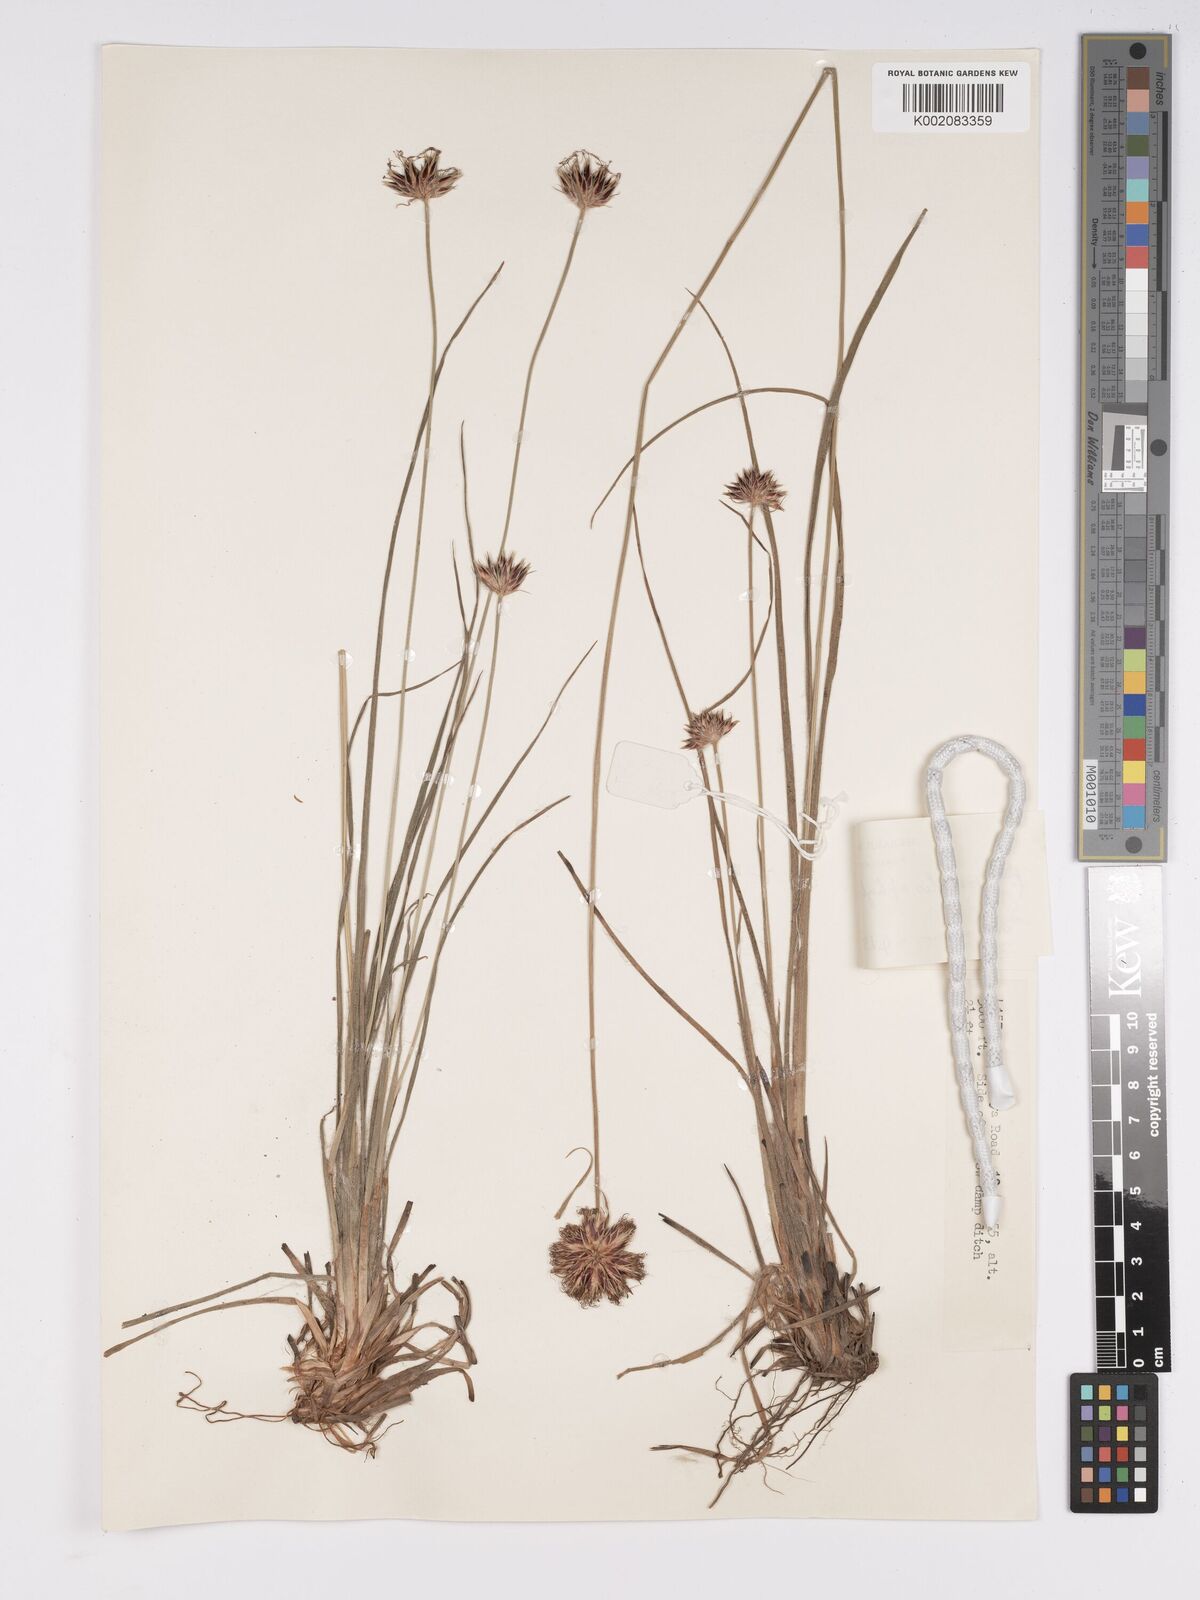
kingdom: Plantae
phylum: Tracheophyta
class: Liliopsida
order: Poales
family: Cyperaceae
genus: Bulbostylis
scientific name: Bulbostylis pilosa
